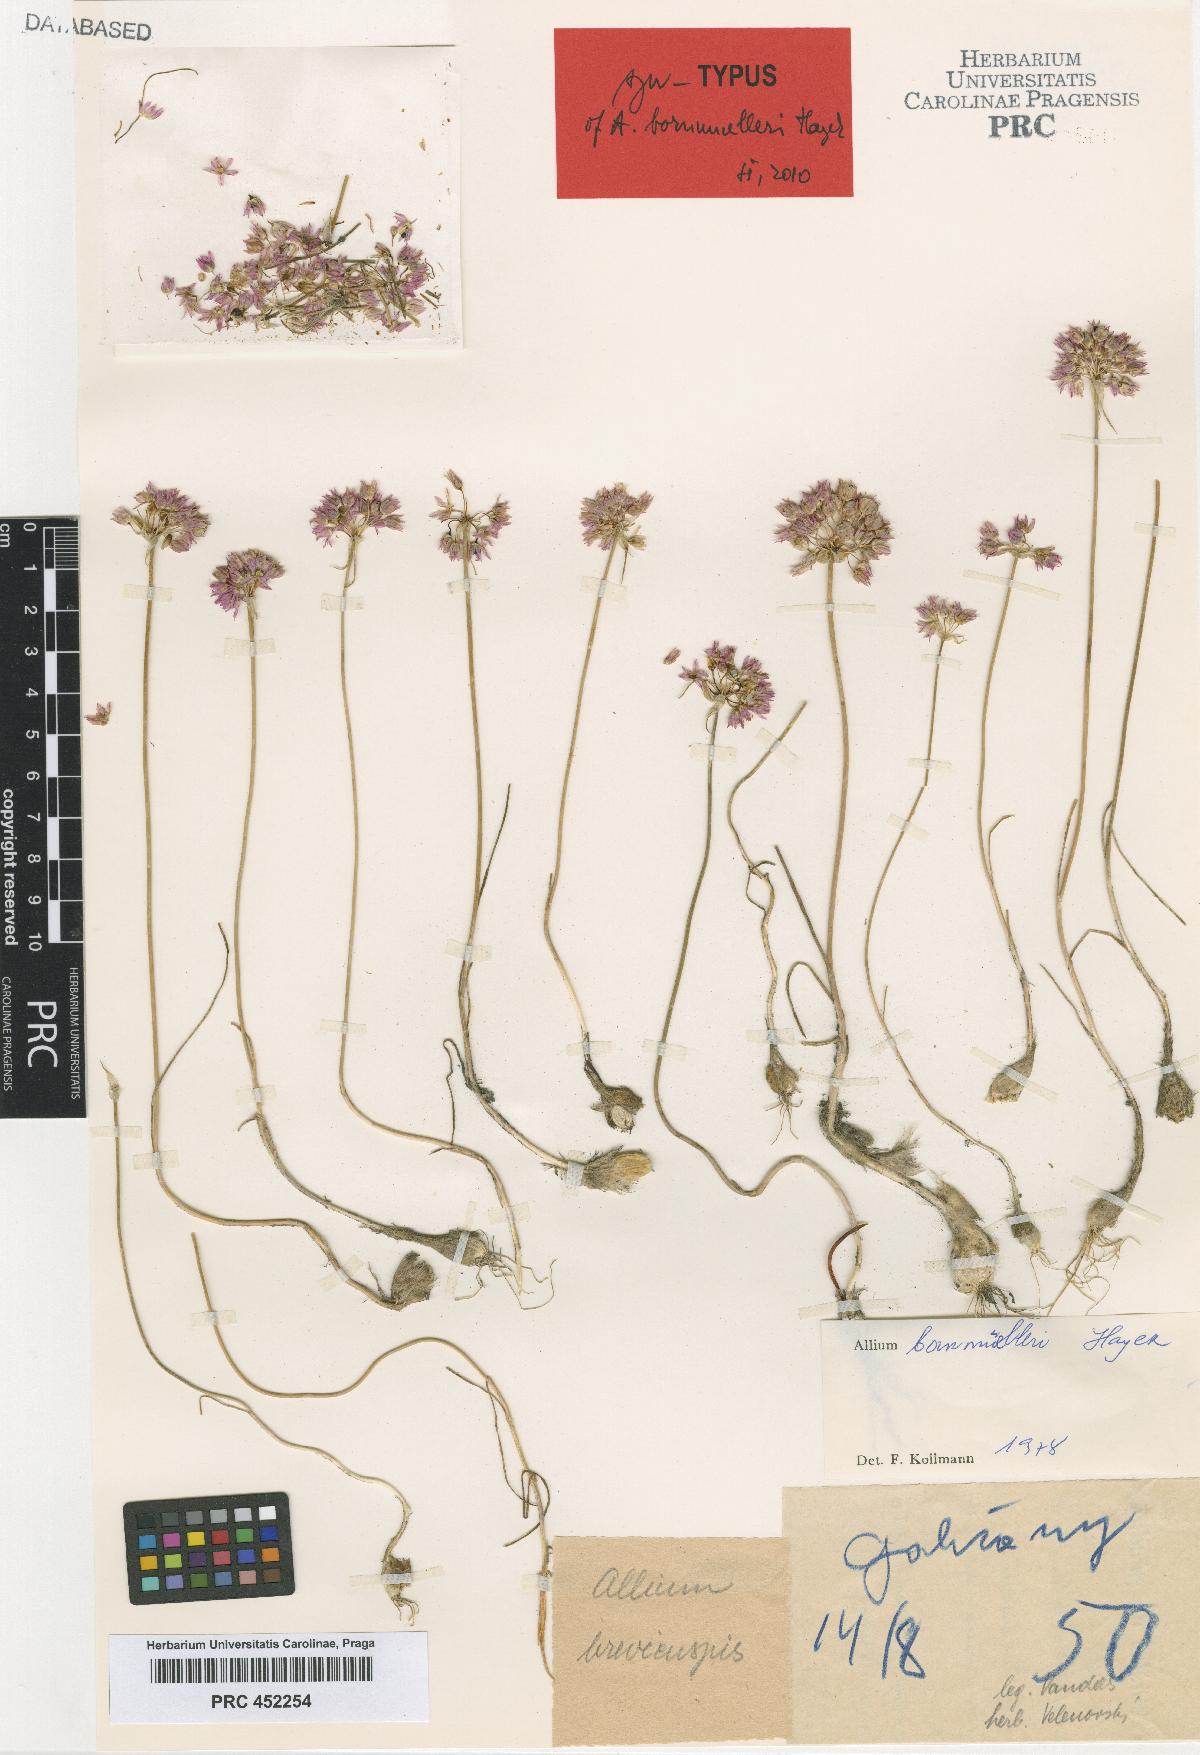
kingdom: Plantae
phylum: Tracheophyta
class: Liliopsida
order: Asparagales
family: Amaryllidaceae
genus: Allium
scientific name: Allium bornmuelleri
